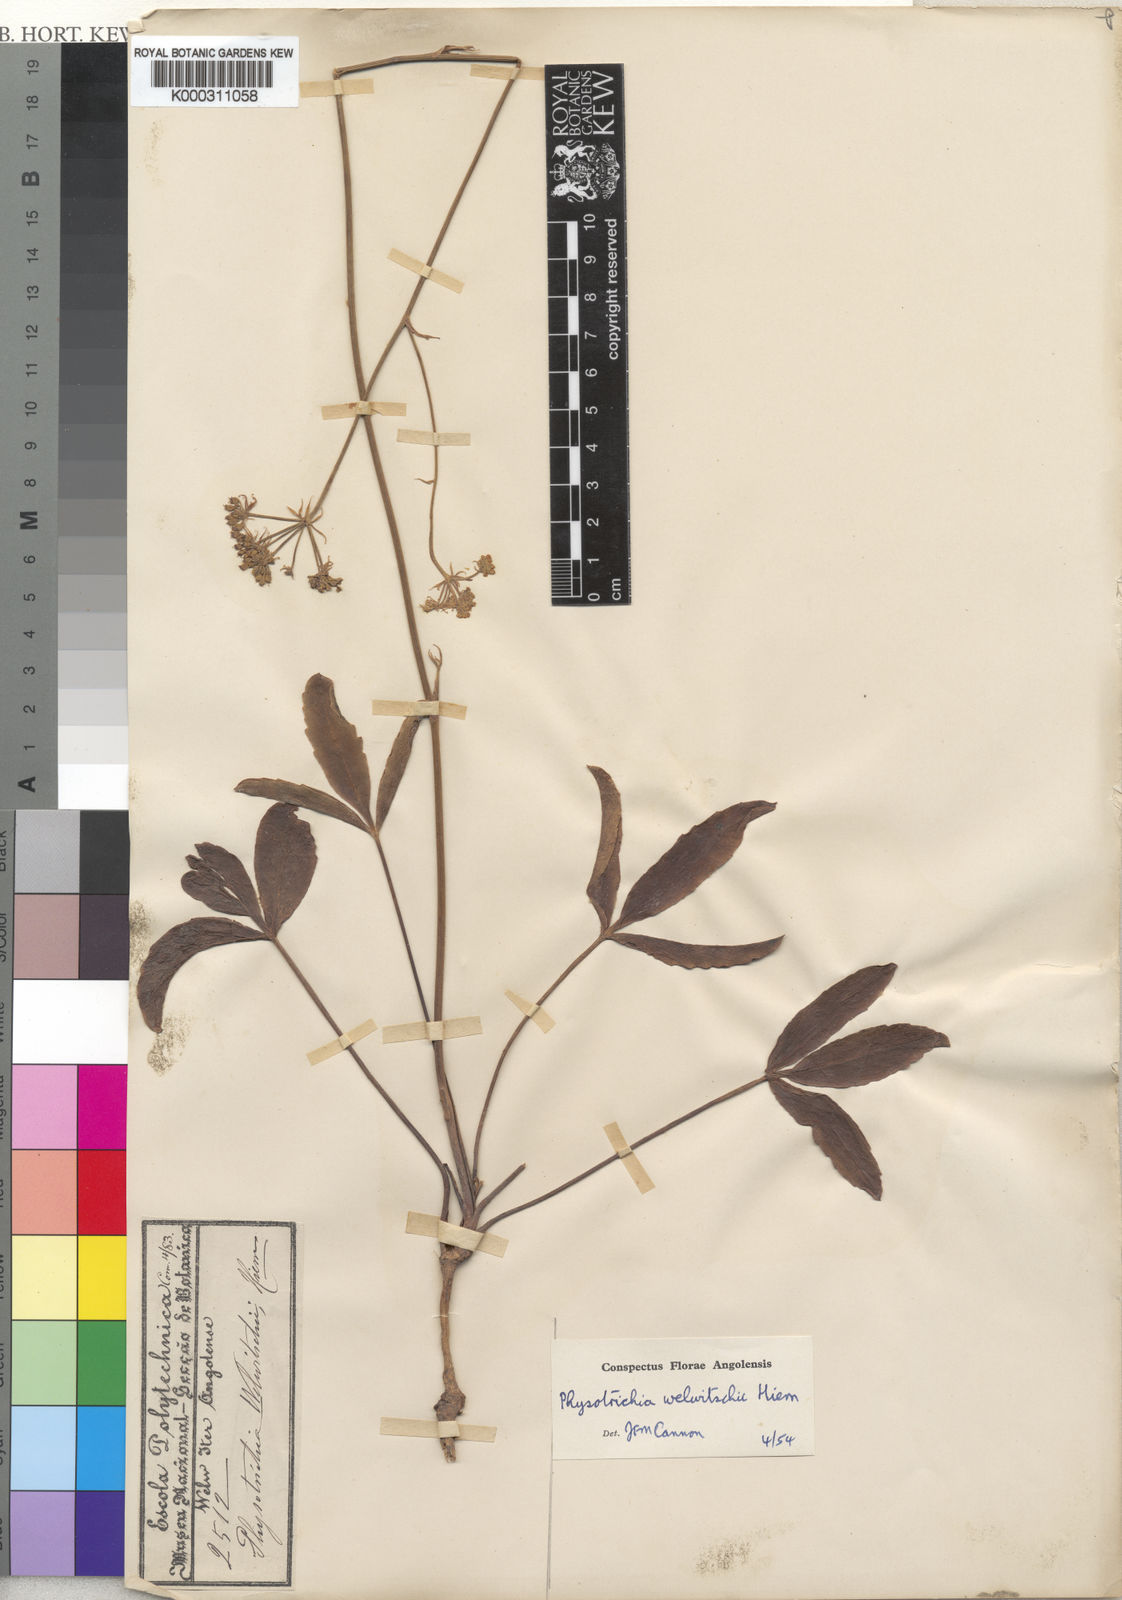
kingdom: Plantae
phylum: Tracheophyta
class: Magnoliopsida
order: Apiales
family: Apiaceae
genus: Physotrichia
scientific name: Physotrichia welwitschii
